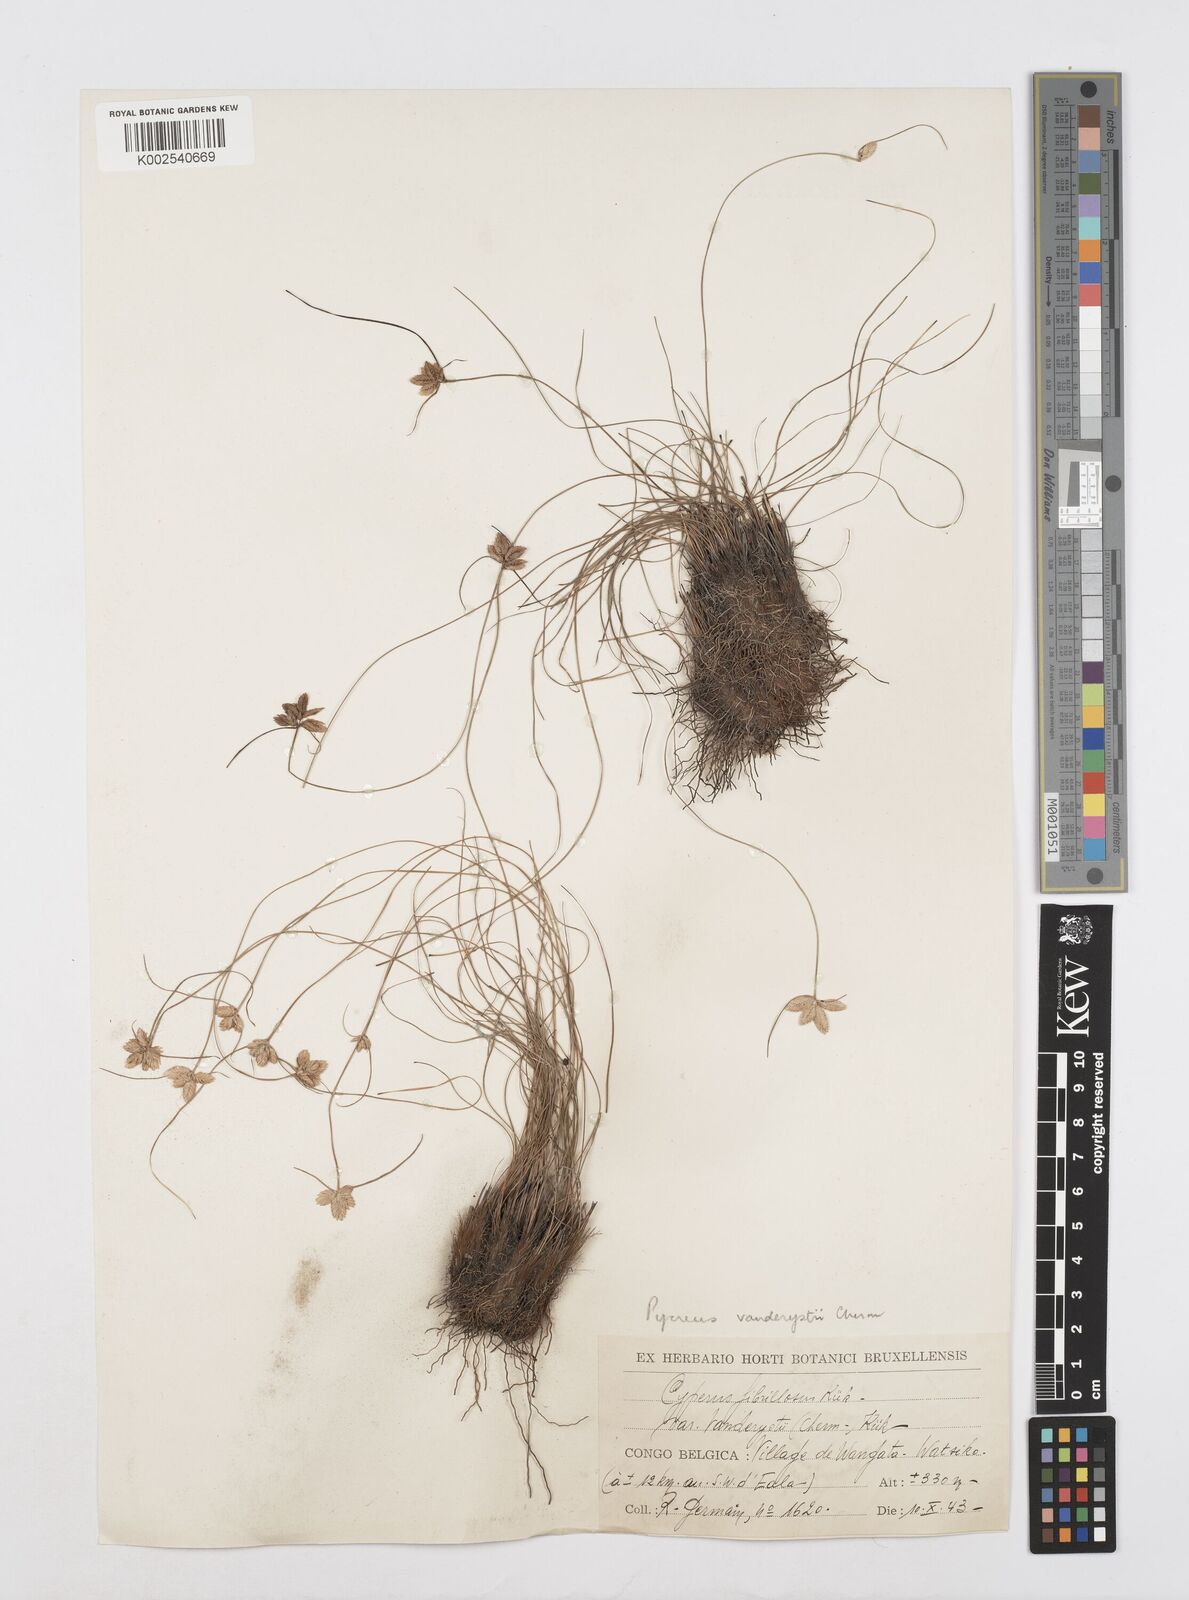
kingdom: Plantae
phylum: Tracheophyta
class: Liliopsida
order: Poales
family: Cyperaceae
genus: Cyperus
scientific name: Cyperus
